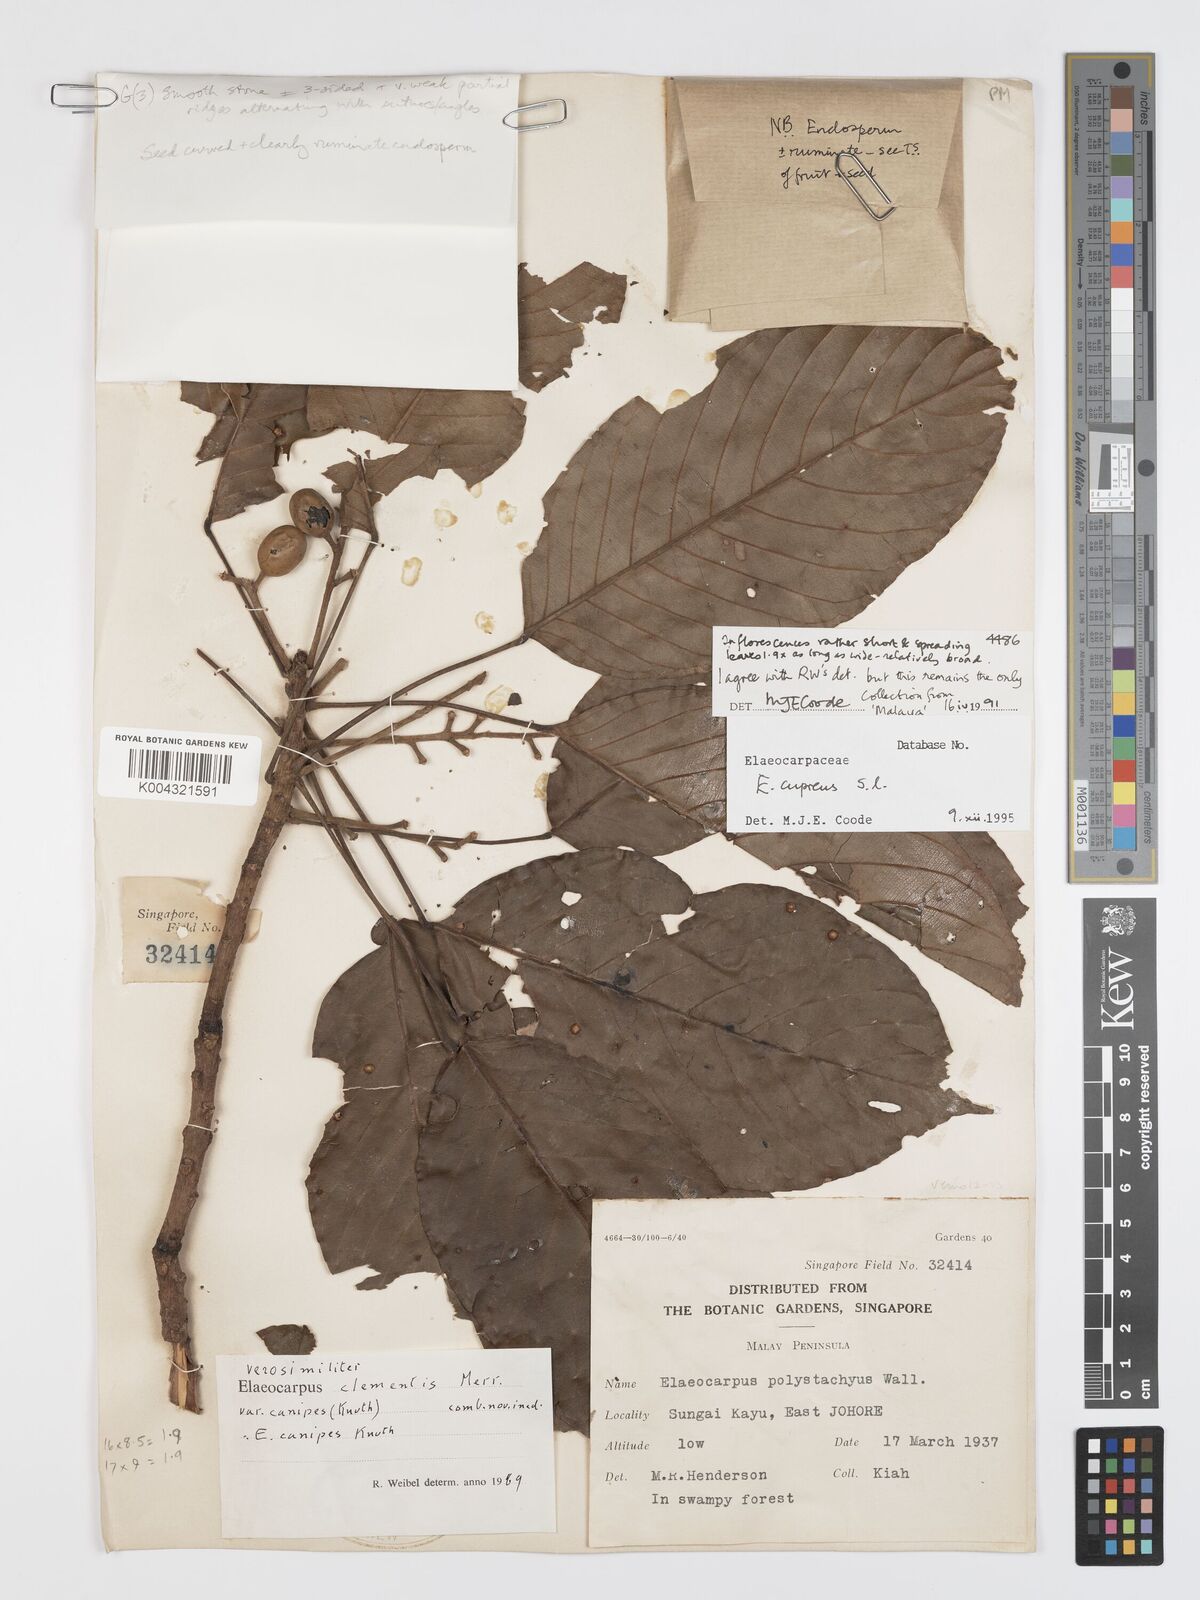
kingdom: Plantae
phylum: Tracheophyta
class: Magnoliopsida
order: Oxalidales
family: Elaeocarpaceae
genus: Elaeocarpus
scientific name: Elaeocarpus cupreus
